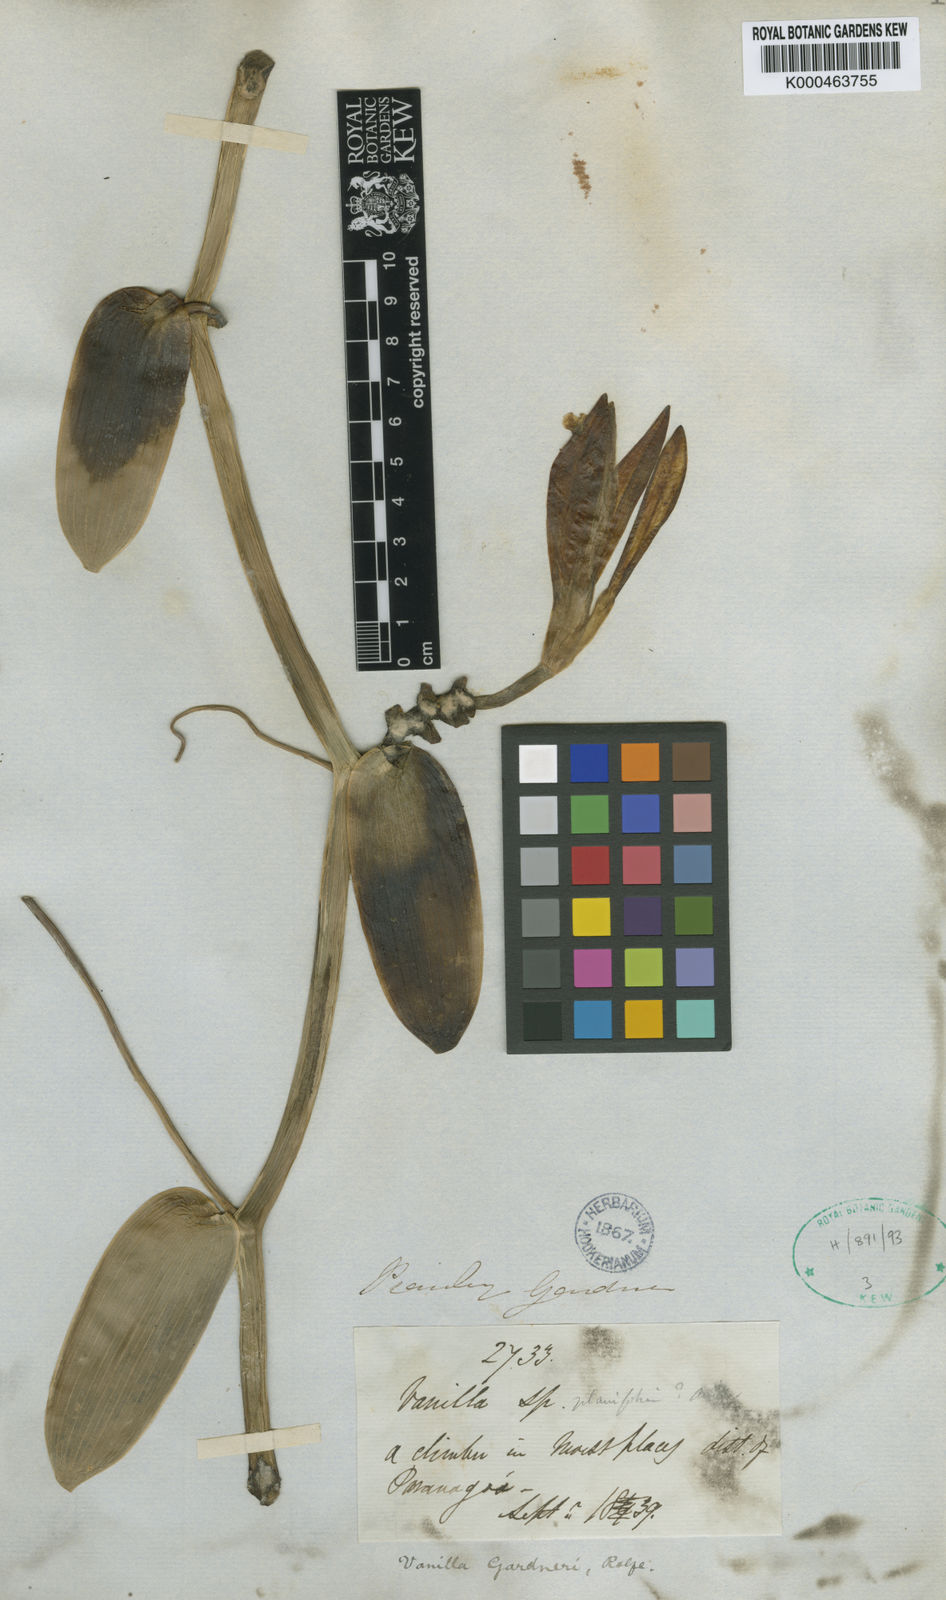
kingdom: Plantae
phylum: Tracheophyta
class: Liliopsida
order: Asparagales
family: Orchidaceae
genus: Vanilla
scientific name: Vanilla phaeantha
